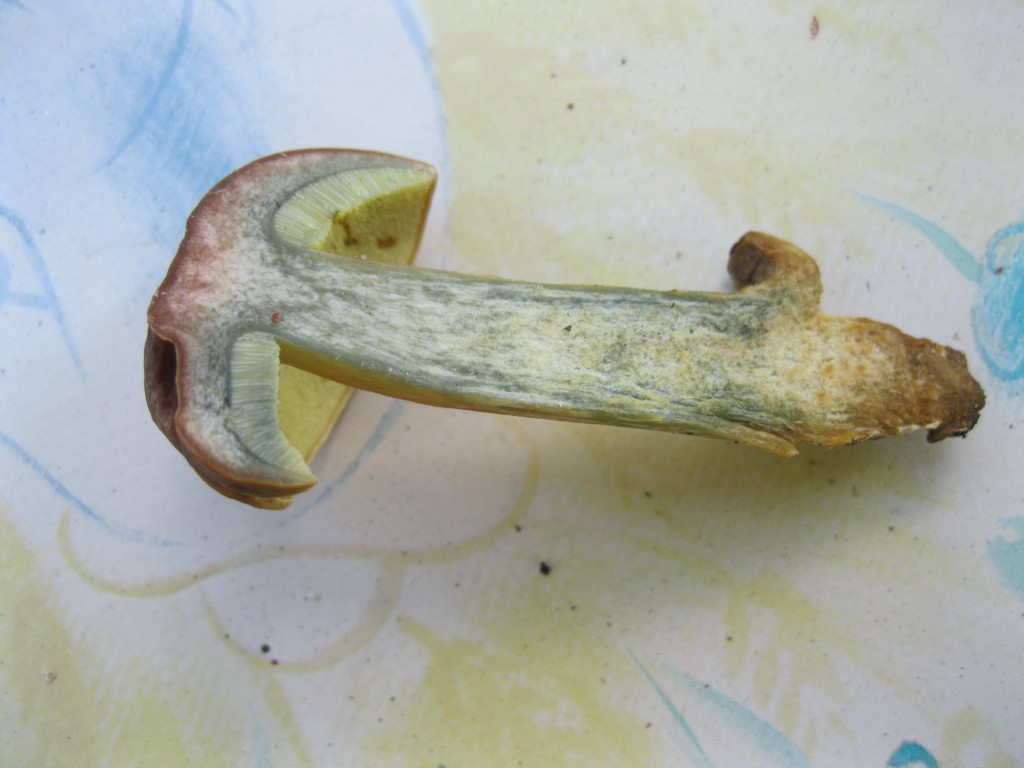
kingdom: Fungi
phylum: Basidiomycota
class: Agaricomycetes
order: Boletales
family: Boletaceae
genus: Hortiboletus
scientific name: Hortiboletus bubalinus
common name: aurora-rørhat
